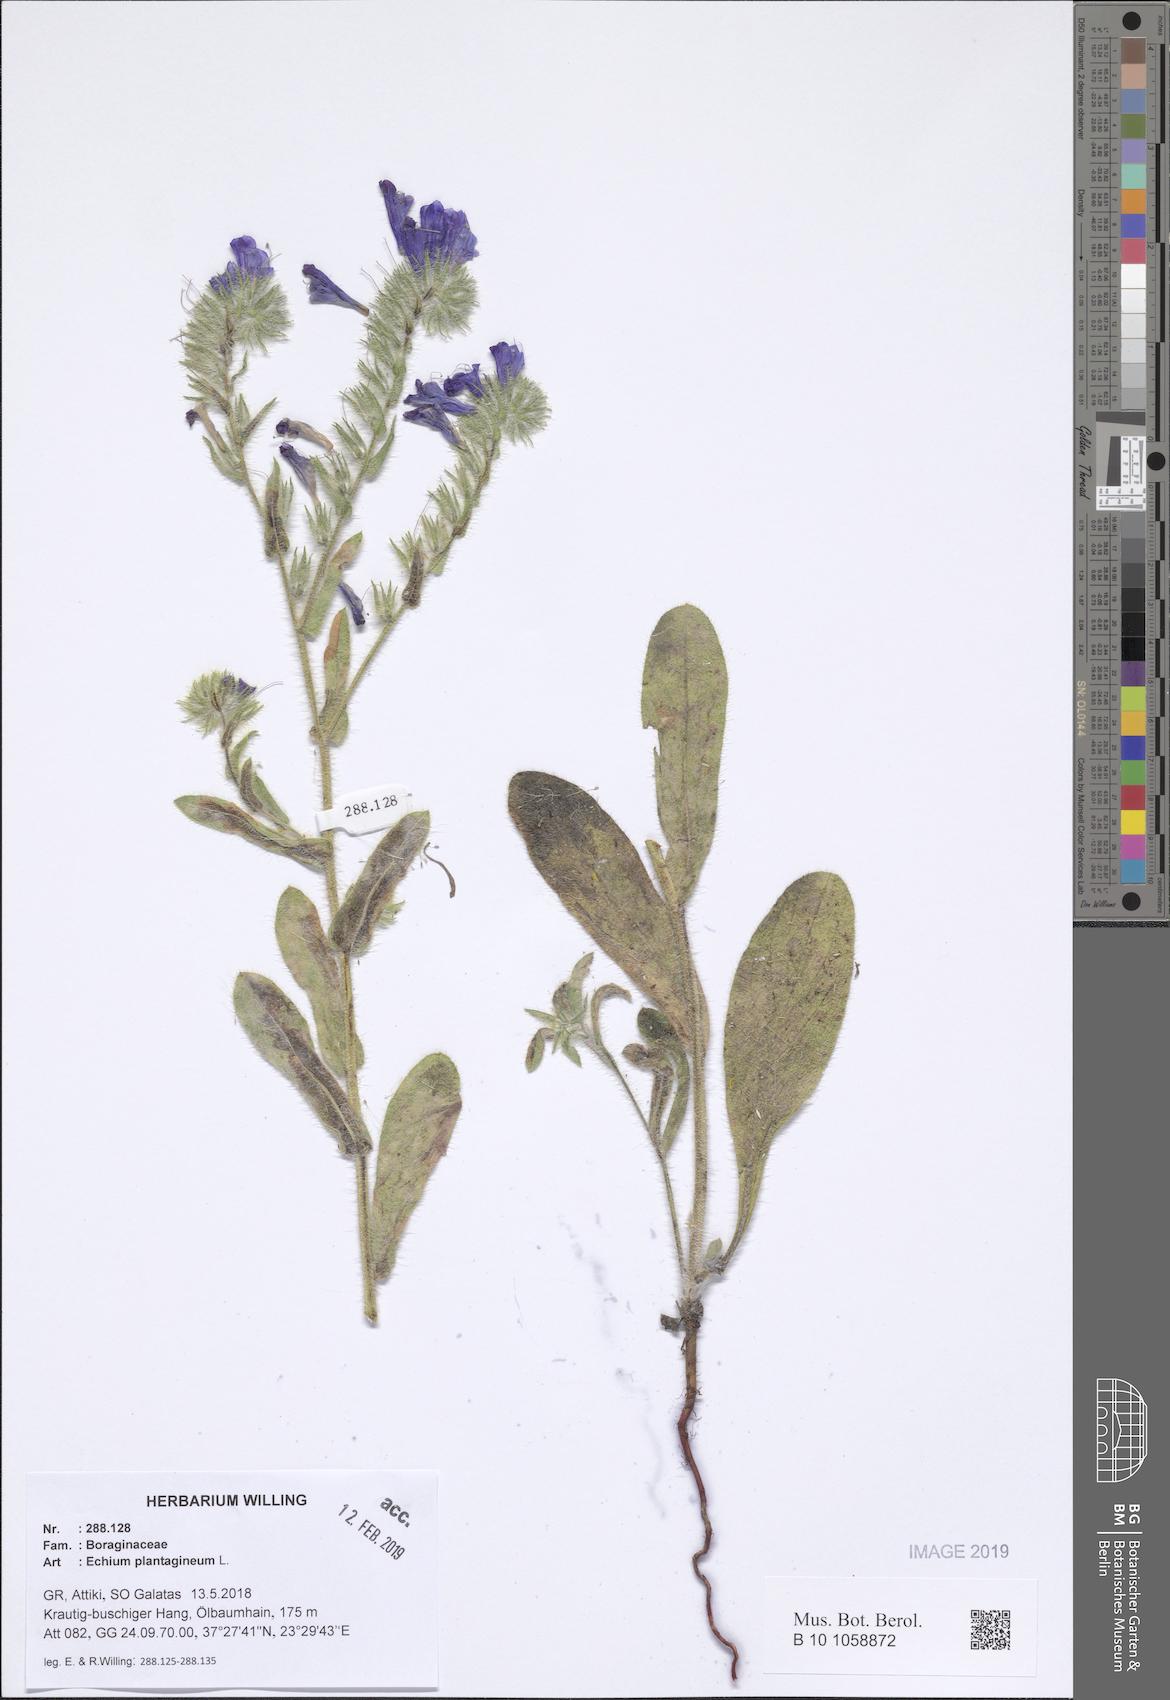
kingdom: Plantae
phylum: Tracheophyta
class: Magnoliopsida
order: Boraginales
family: Boraginaceae
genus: Echium
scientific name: Echium plantagineum
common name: Purple viper's-bugloss
